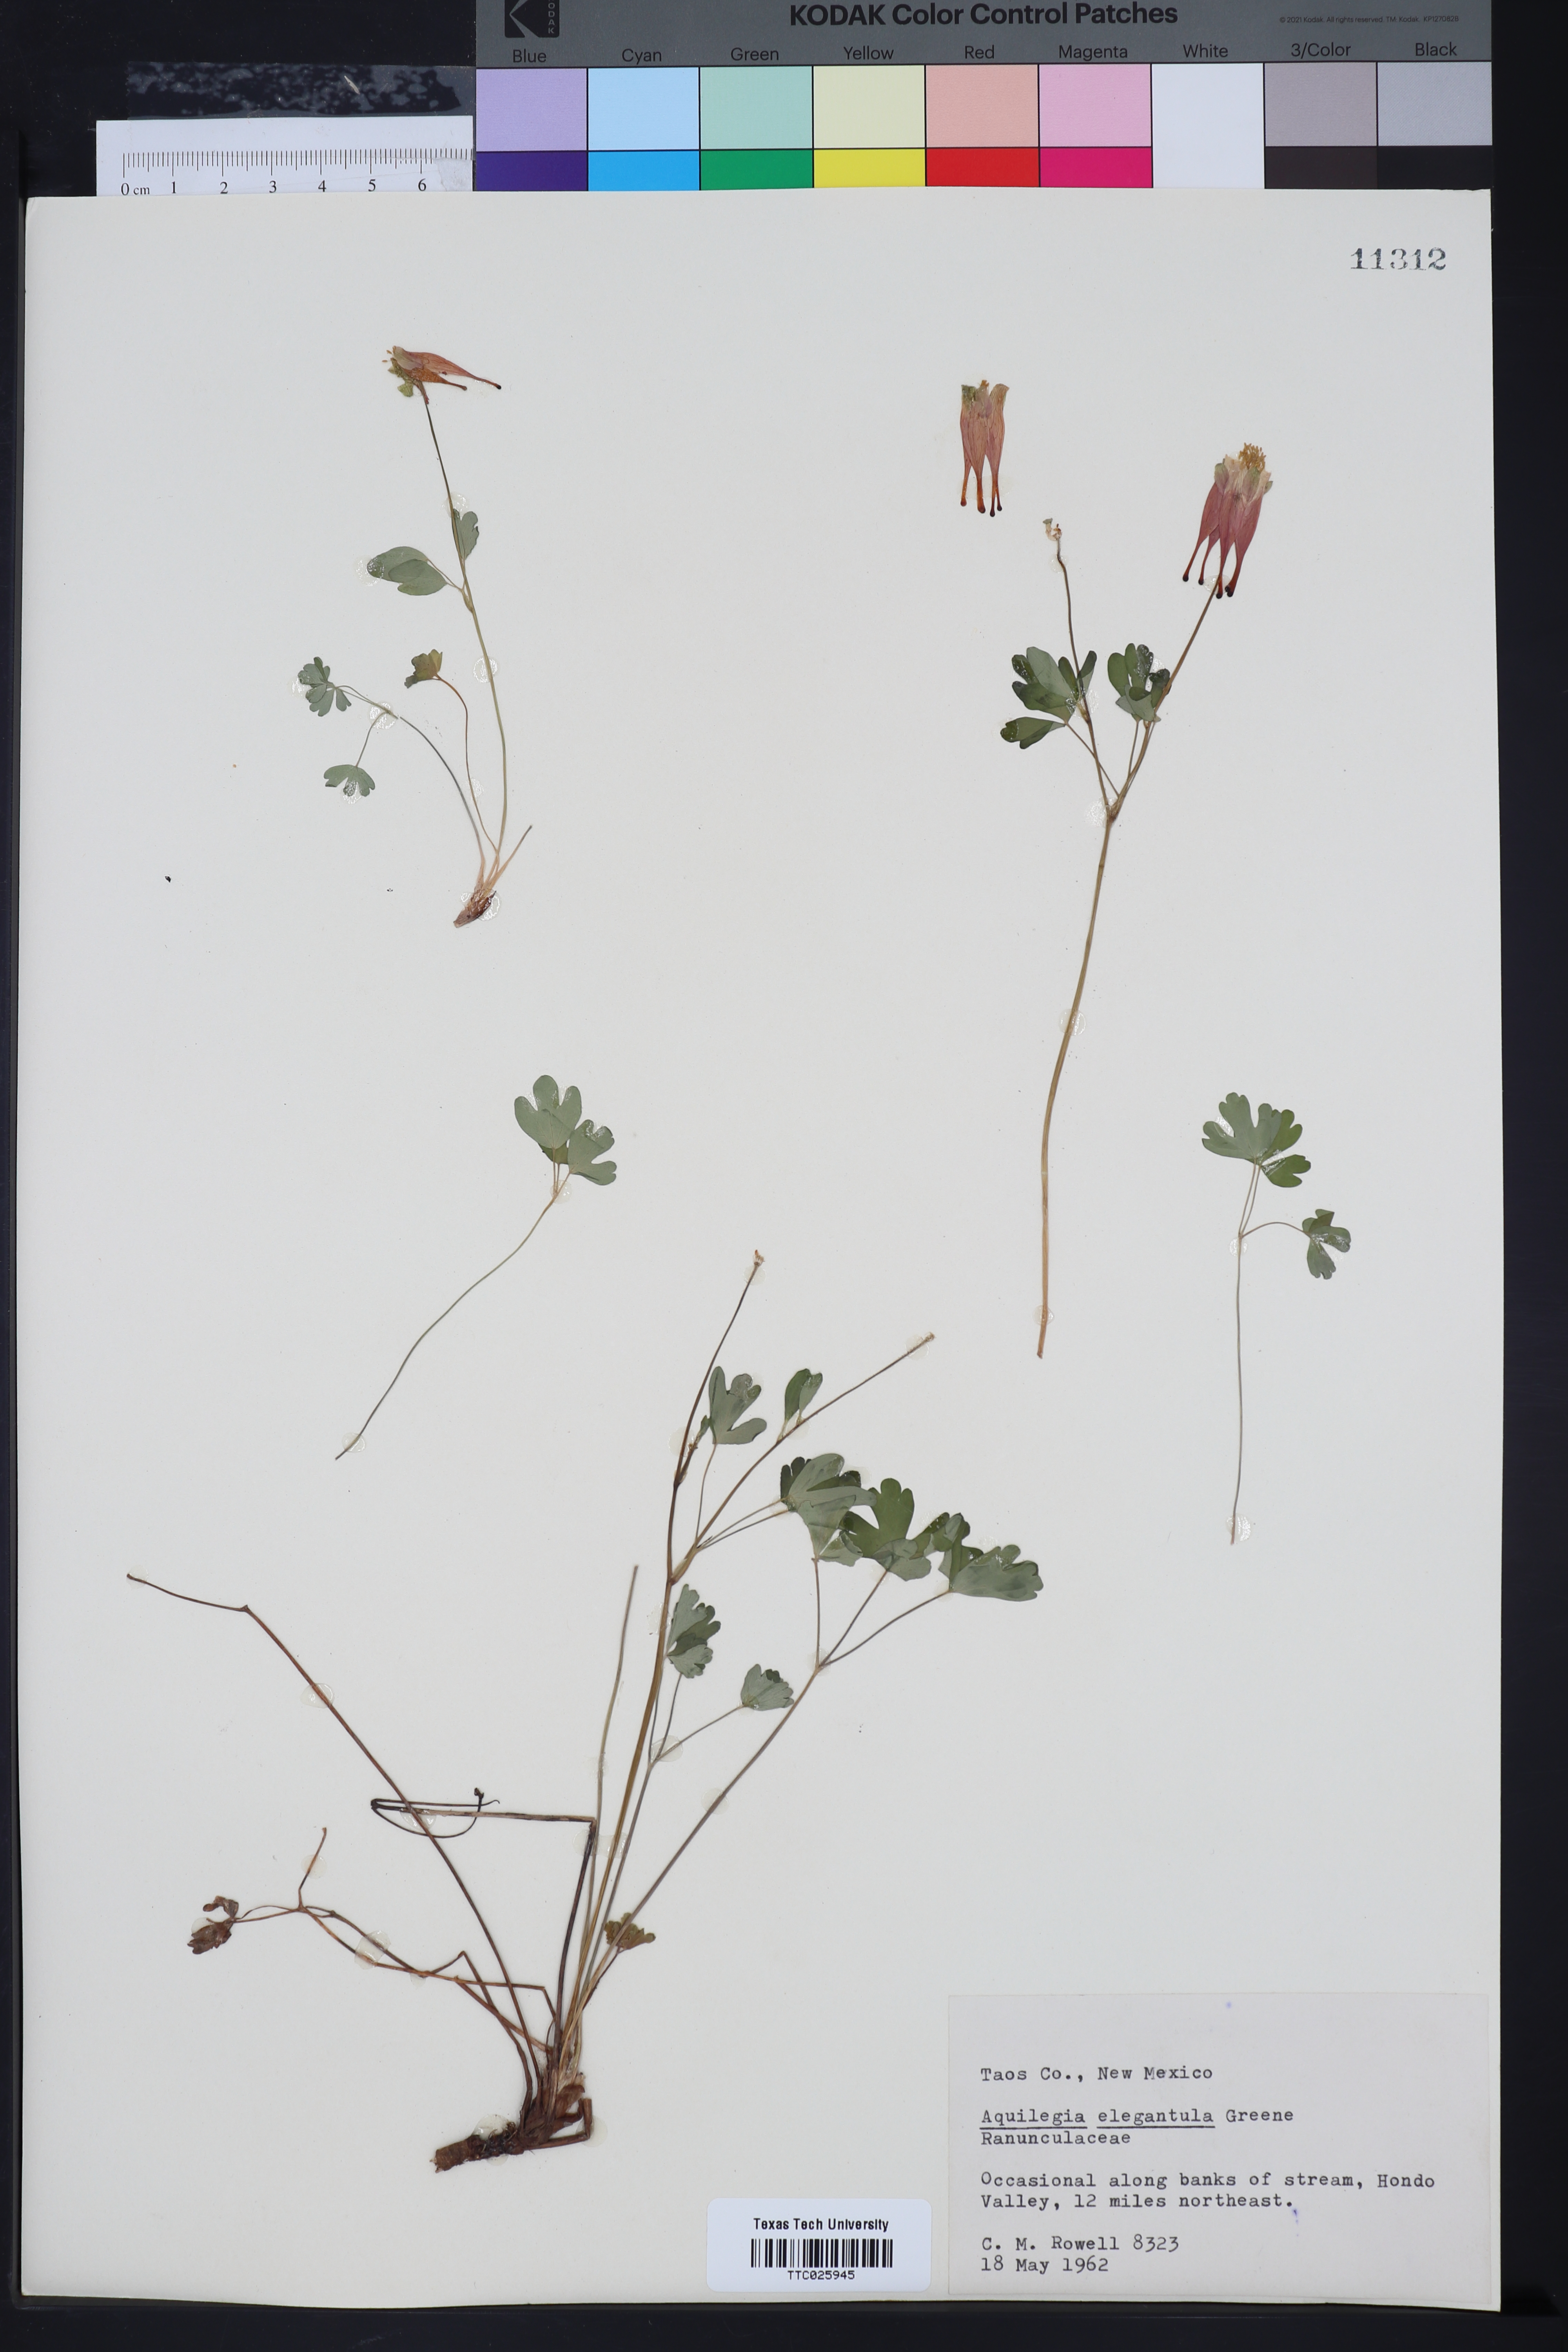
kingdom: Plantae
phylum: Tracheophyta
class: Magnoliopsida
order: Ranunculales
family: Ranunculaceae
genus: Aquilegia
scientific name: Aquilegia elegantula
